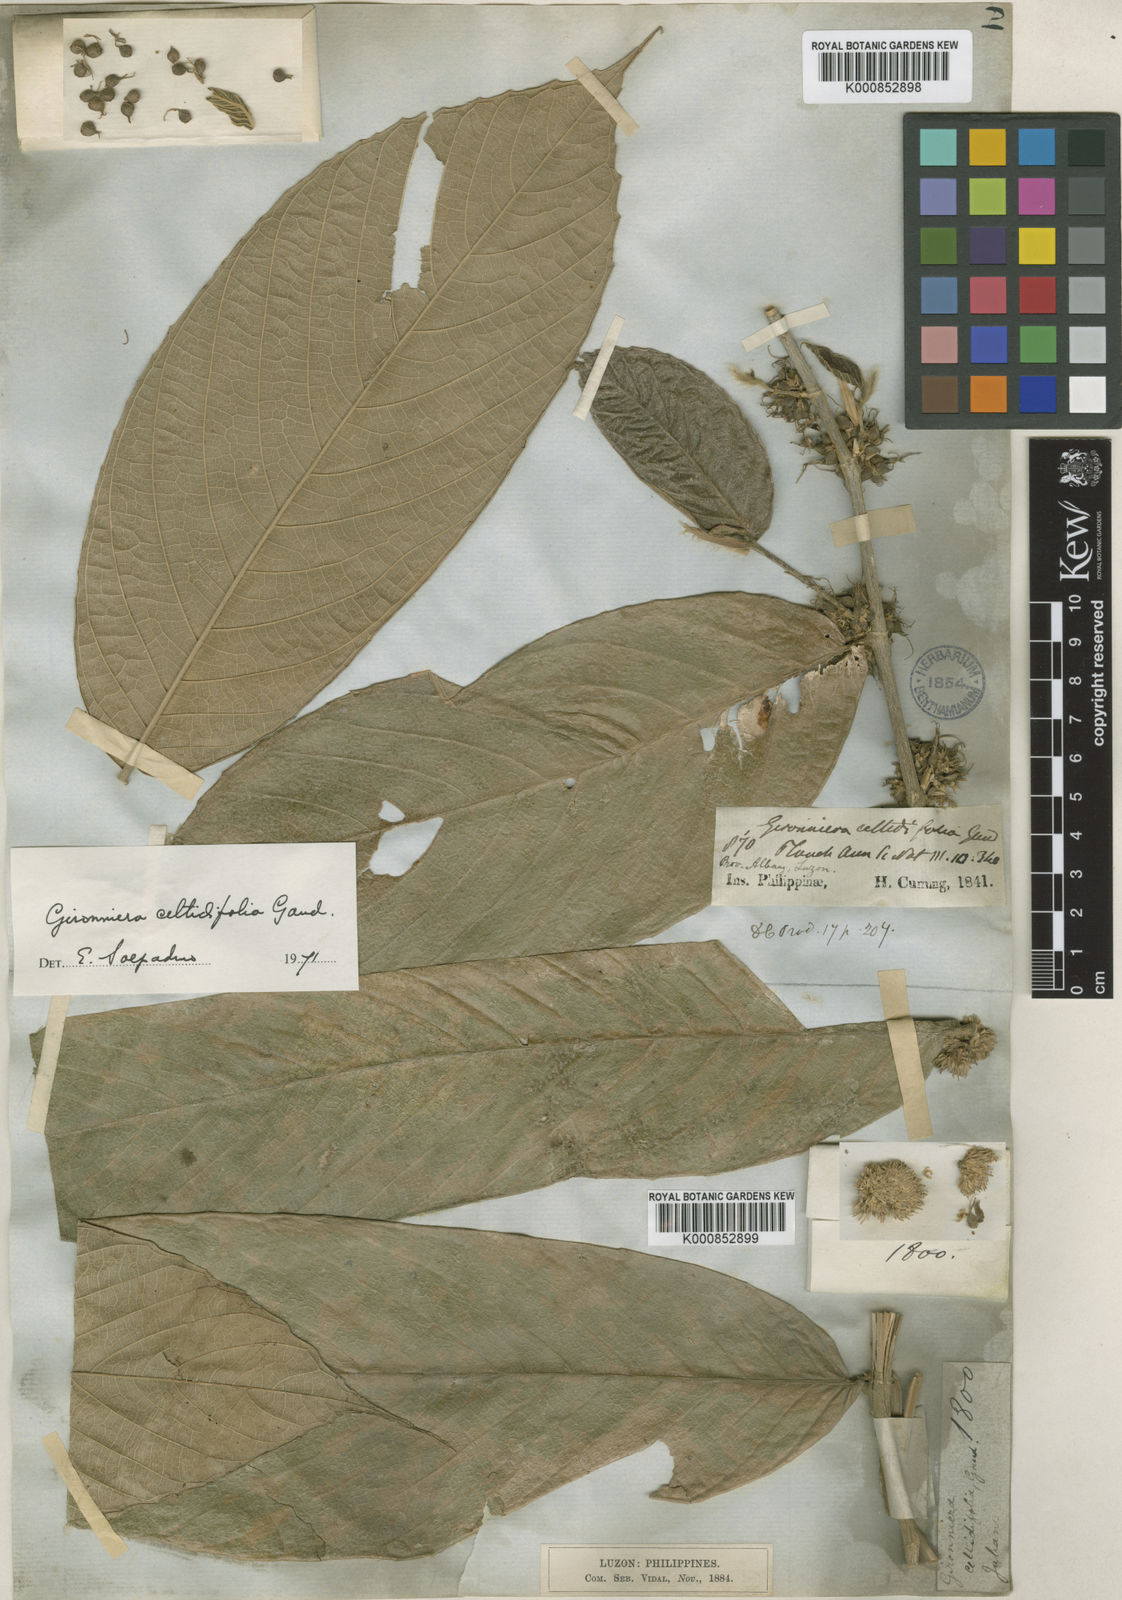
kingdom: Plantae
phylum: Tracheophyta
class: Magnoliopsida
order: Rosales
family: Cannabaceae
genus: Gironniera
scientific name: Gironniera celtidifolia
